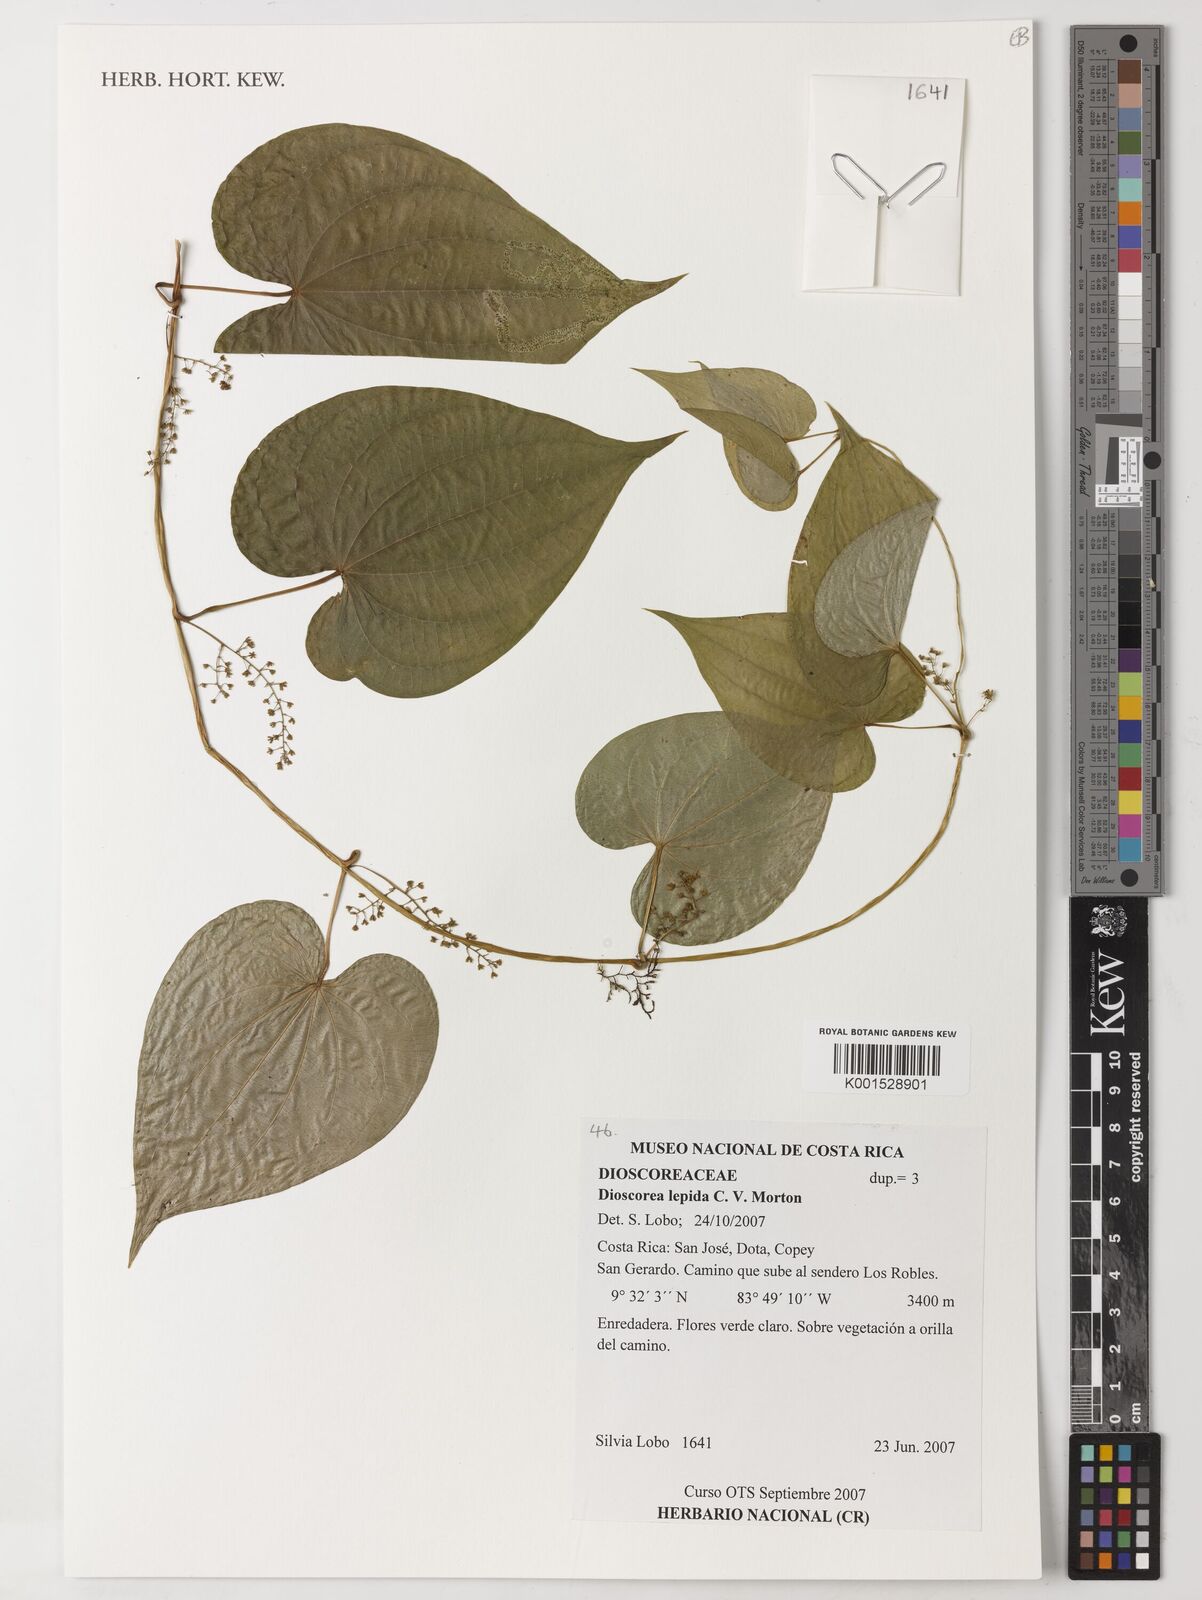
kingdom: Plantae
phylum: Tracheophyta
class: Liliopsida
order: Dioscoreales
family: Dioscoreaceae
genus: Dioscorea
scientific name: Dioscorea lepida
